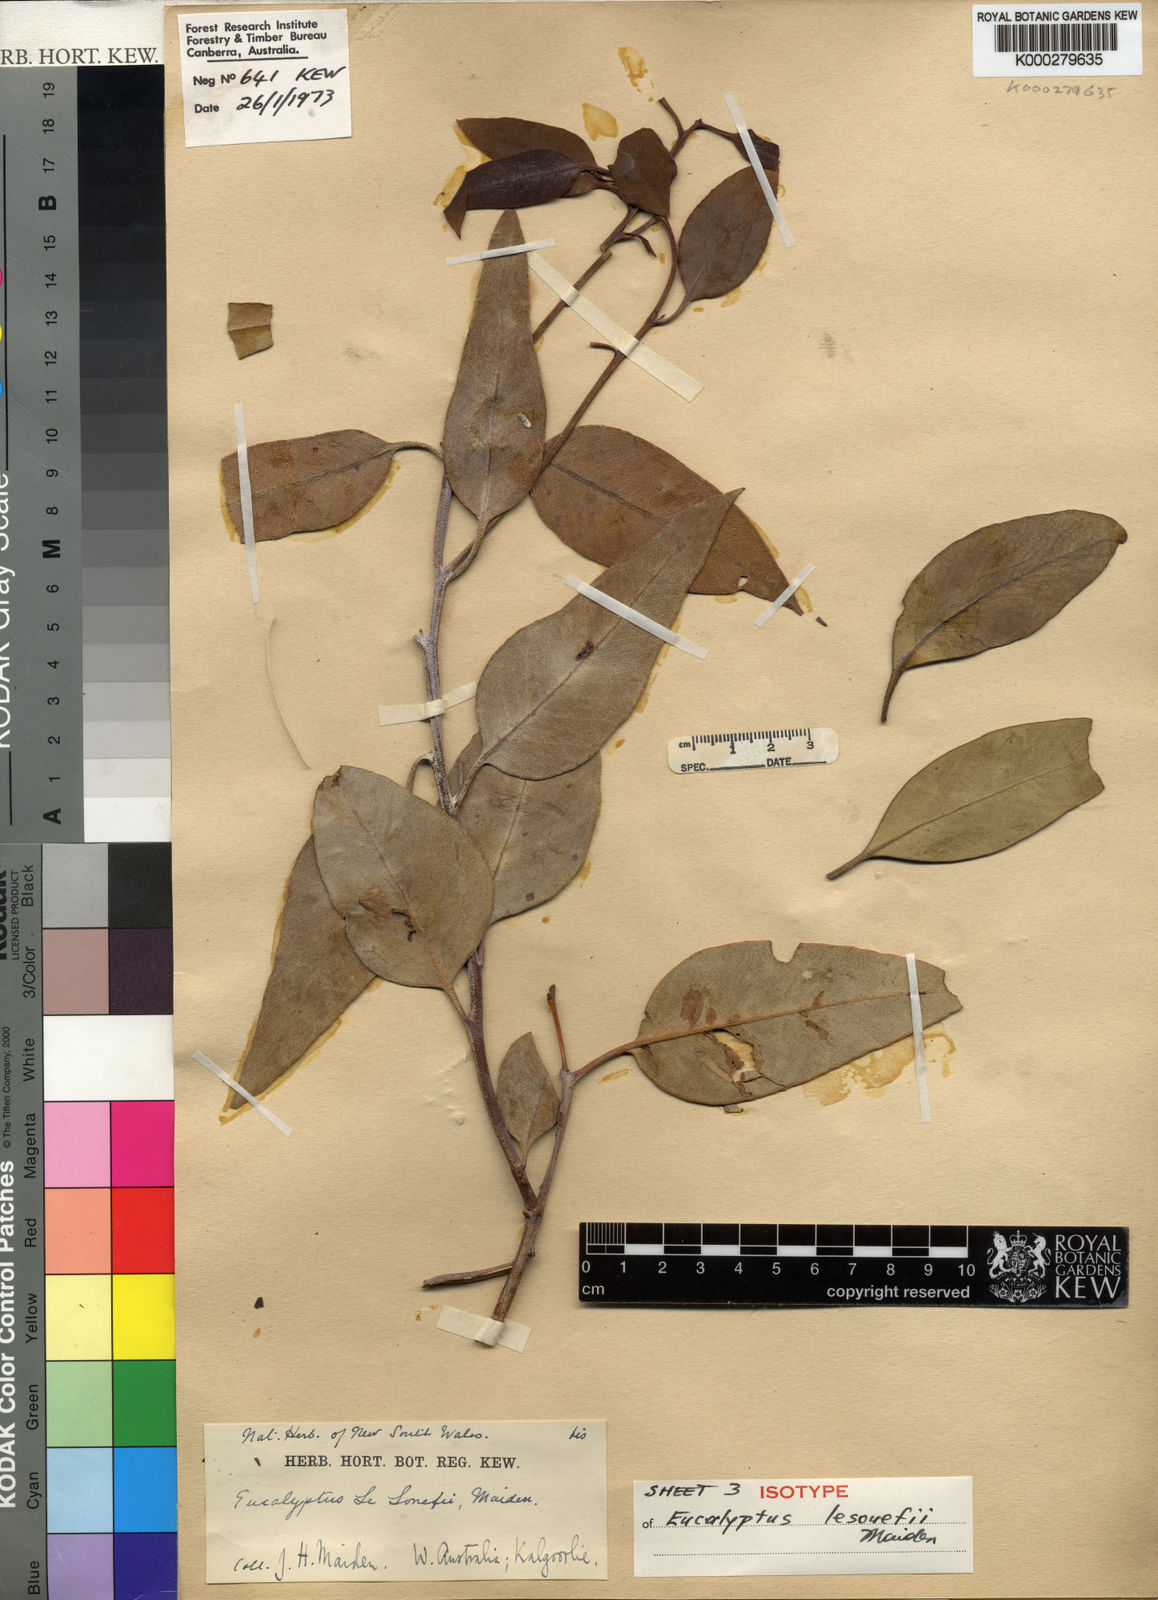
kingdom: Plantae
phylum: Tracheophyta
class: Magnoliopsida
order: Myrtales
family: Myrtaceae
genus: Eucalyptus
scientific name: Eucalyptus lesouefii
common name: Goldfields blackbutt
